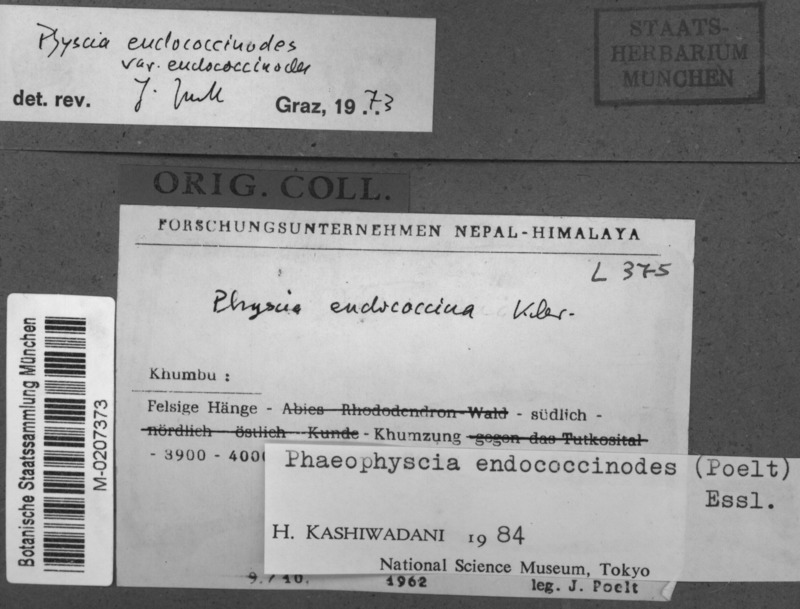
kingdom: Fungi
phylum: Ascomycota
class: Lecanoromycetes
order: Caliciales
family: Physciaceae
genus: Phaeophyscia
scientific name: Phaeophyscia endococcinodes
